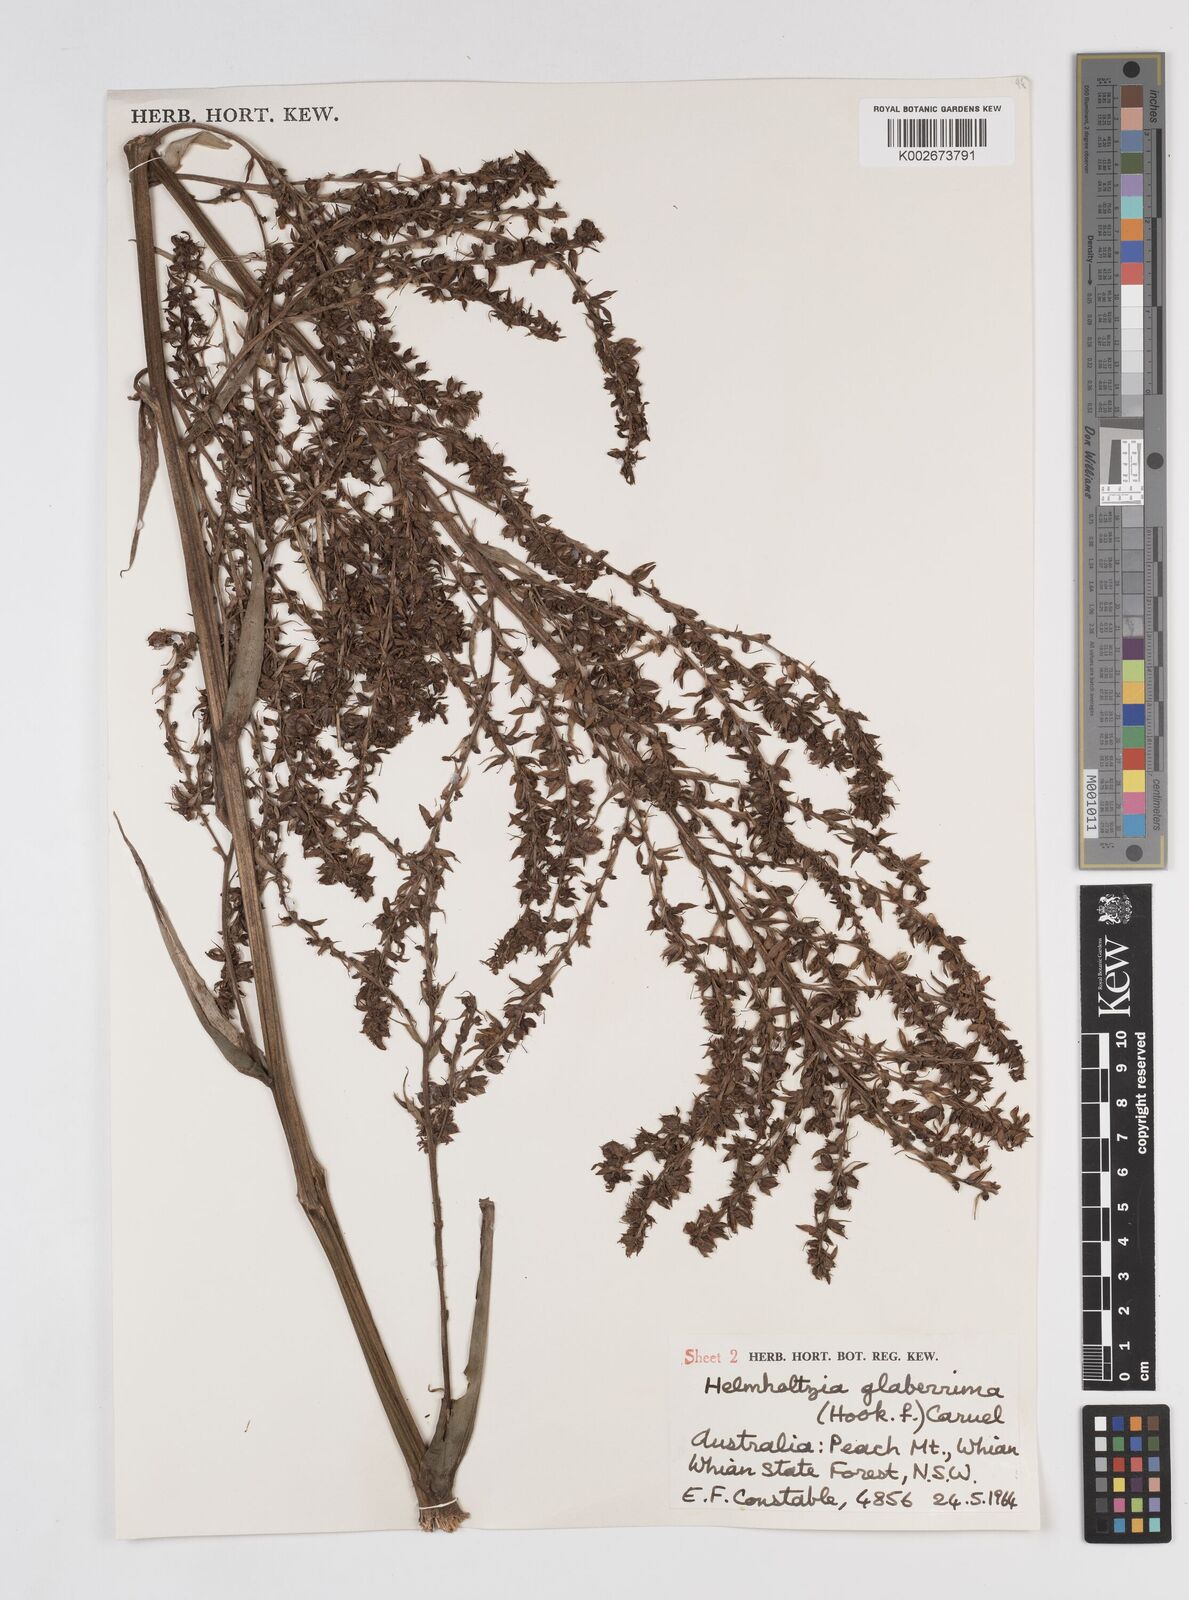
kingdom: Plantae
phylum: Tracheophyta
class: Liliopsida
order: Commelinales
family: Philydraceae
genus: Helmholtzia
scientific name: Helmholtzia glaberrima
